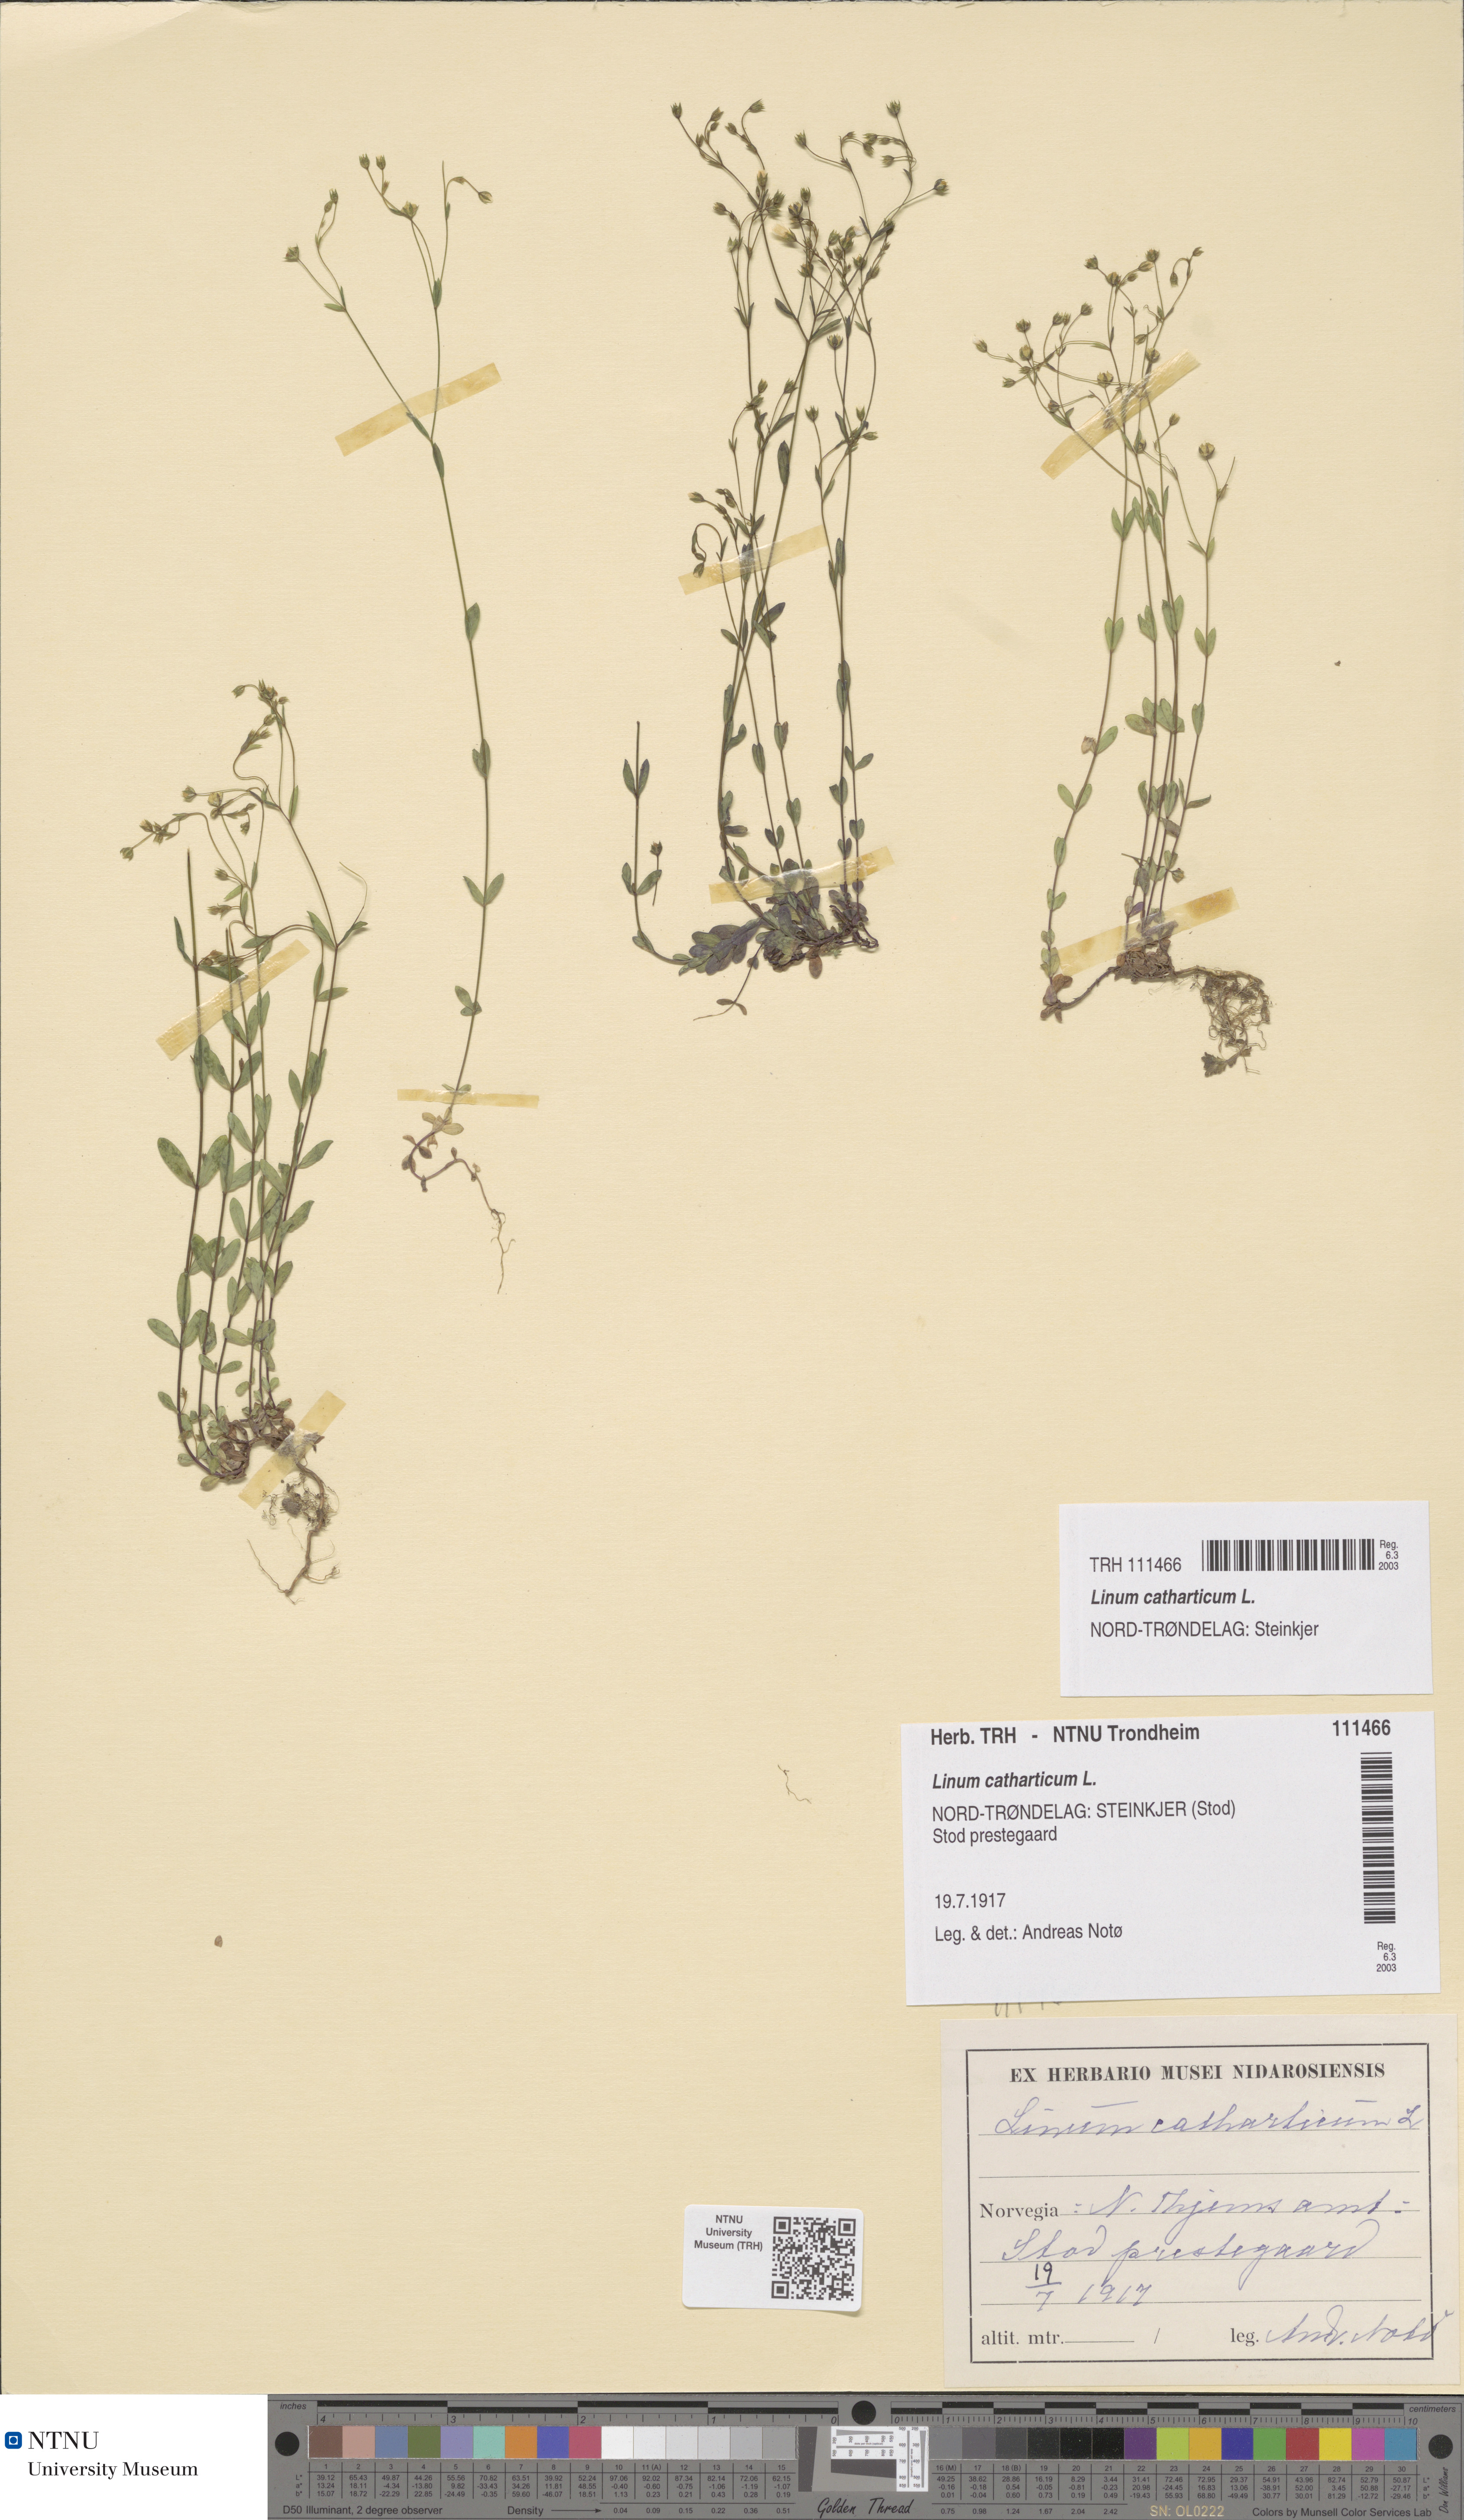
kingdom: Plantae
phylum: Tracheophyta
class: Magnoliopsida
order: Malpighiales
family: Linaceae
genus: Linum
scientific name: Linum catharticum
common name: Fairy flax
